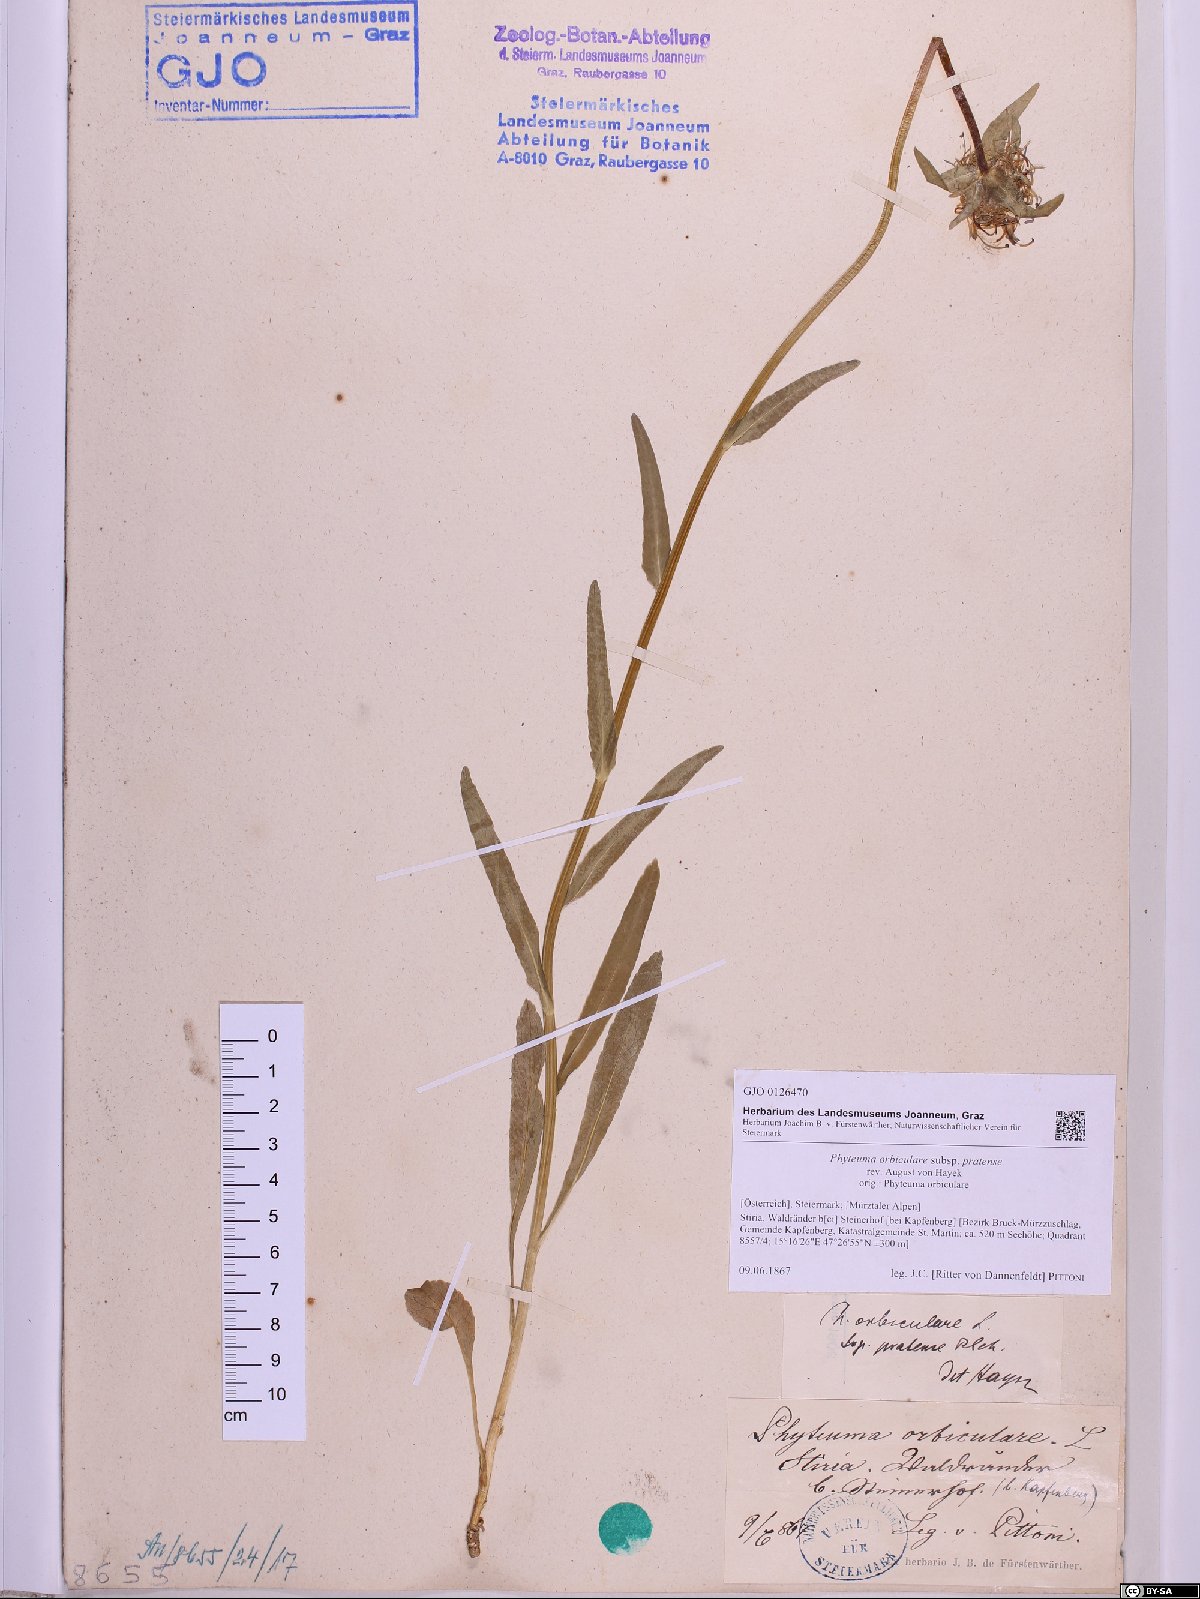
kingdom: Plantae
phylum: Tracheophyta
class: Magnoliopsida
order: Asterales
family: Campanulaceae
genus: Phyteuma
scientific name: Phyteuma orbiculare
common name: Round-headed rampion
